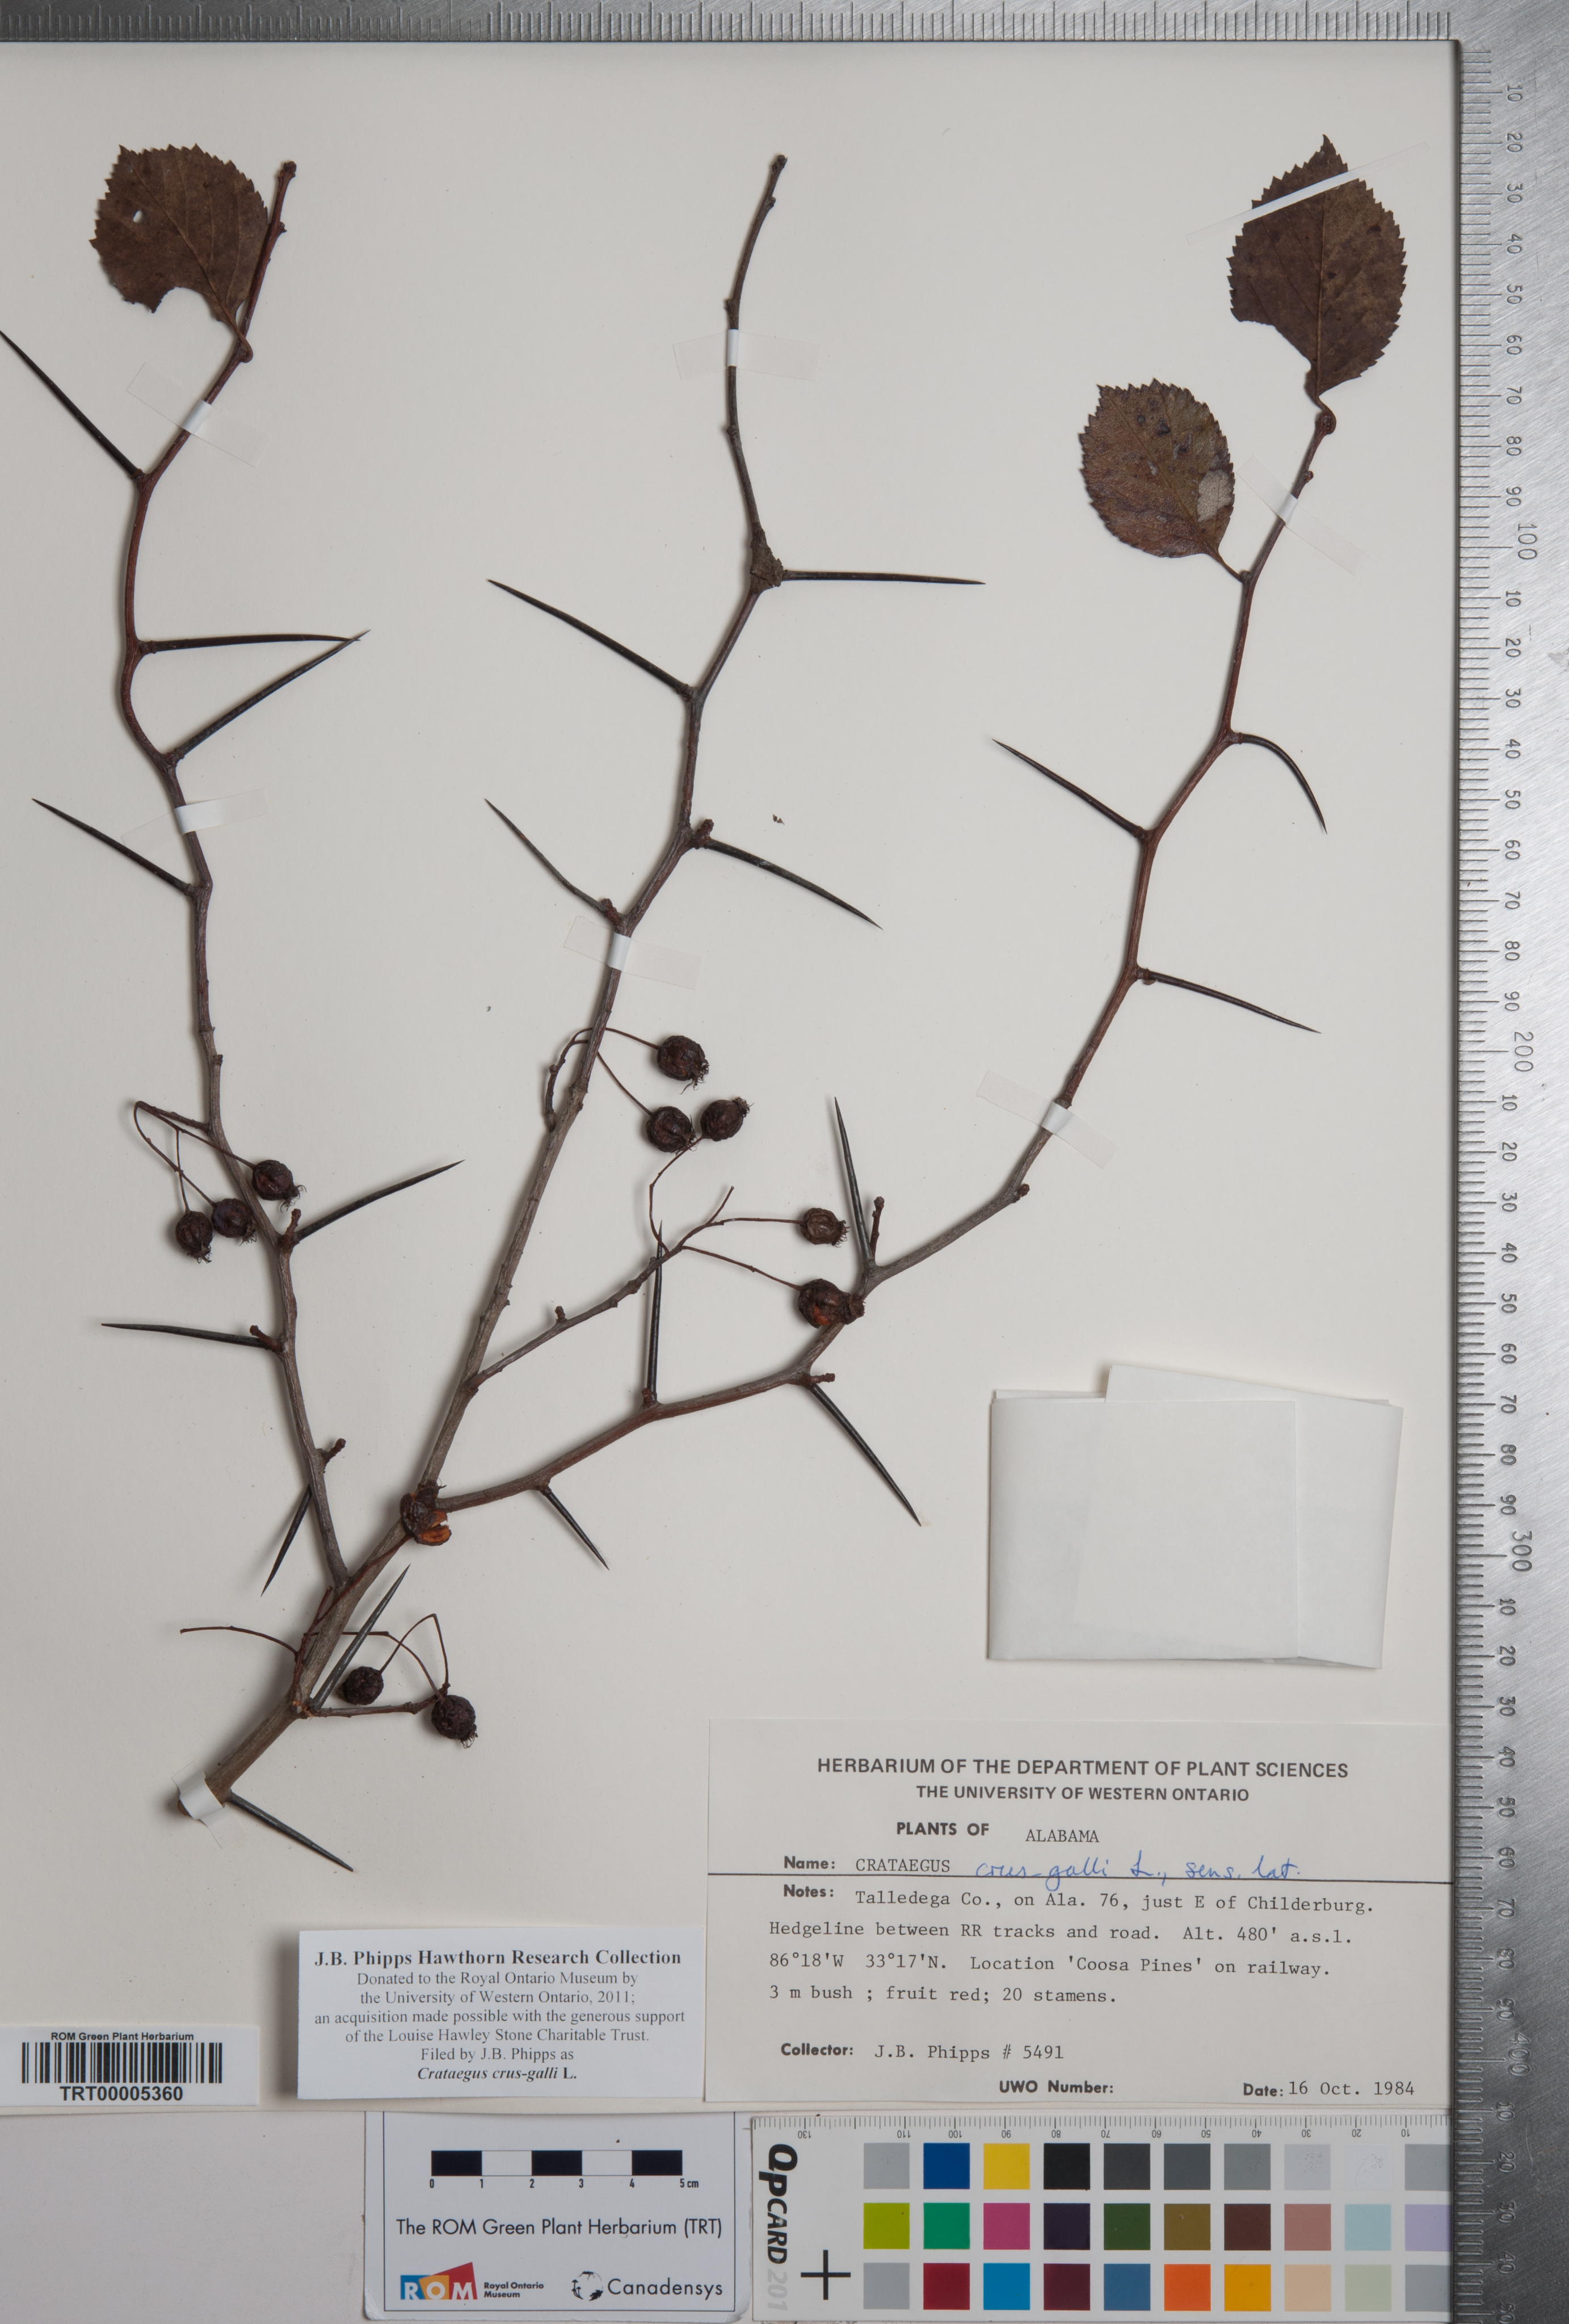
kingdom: Plantae
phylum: Tracheophyta
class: Magnoliopsida
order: Rosales
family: Rosaceae
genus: Crataegus
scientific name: Crataegus crus-galli
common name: Cockspurthorn
